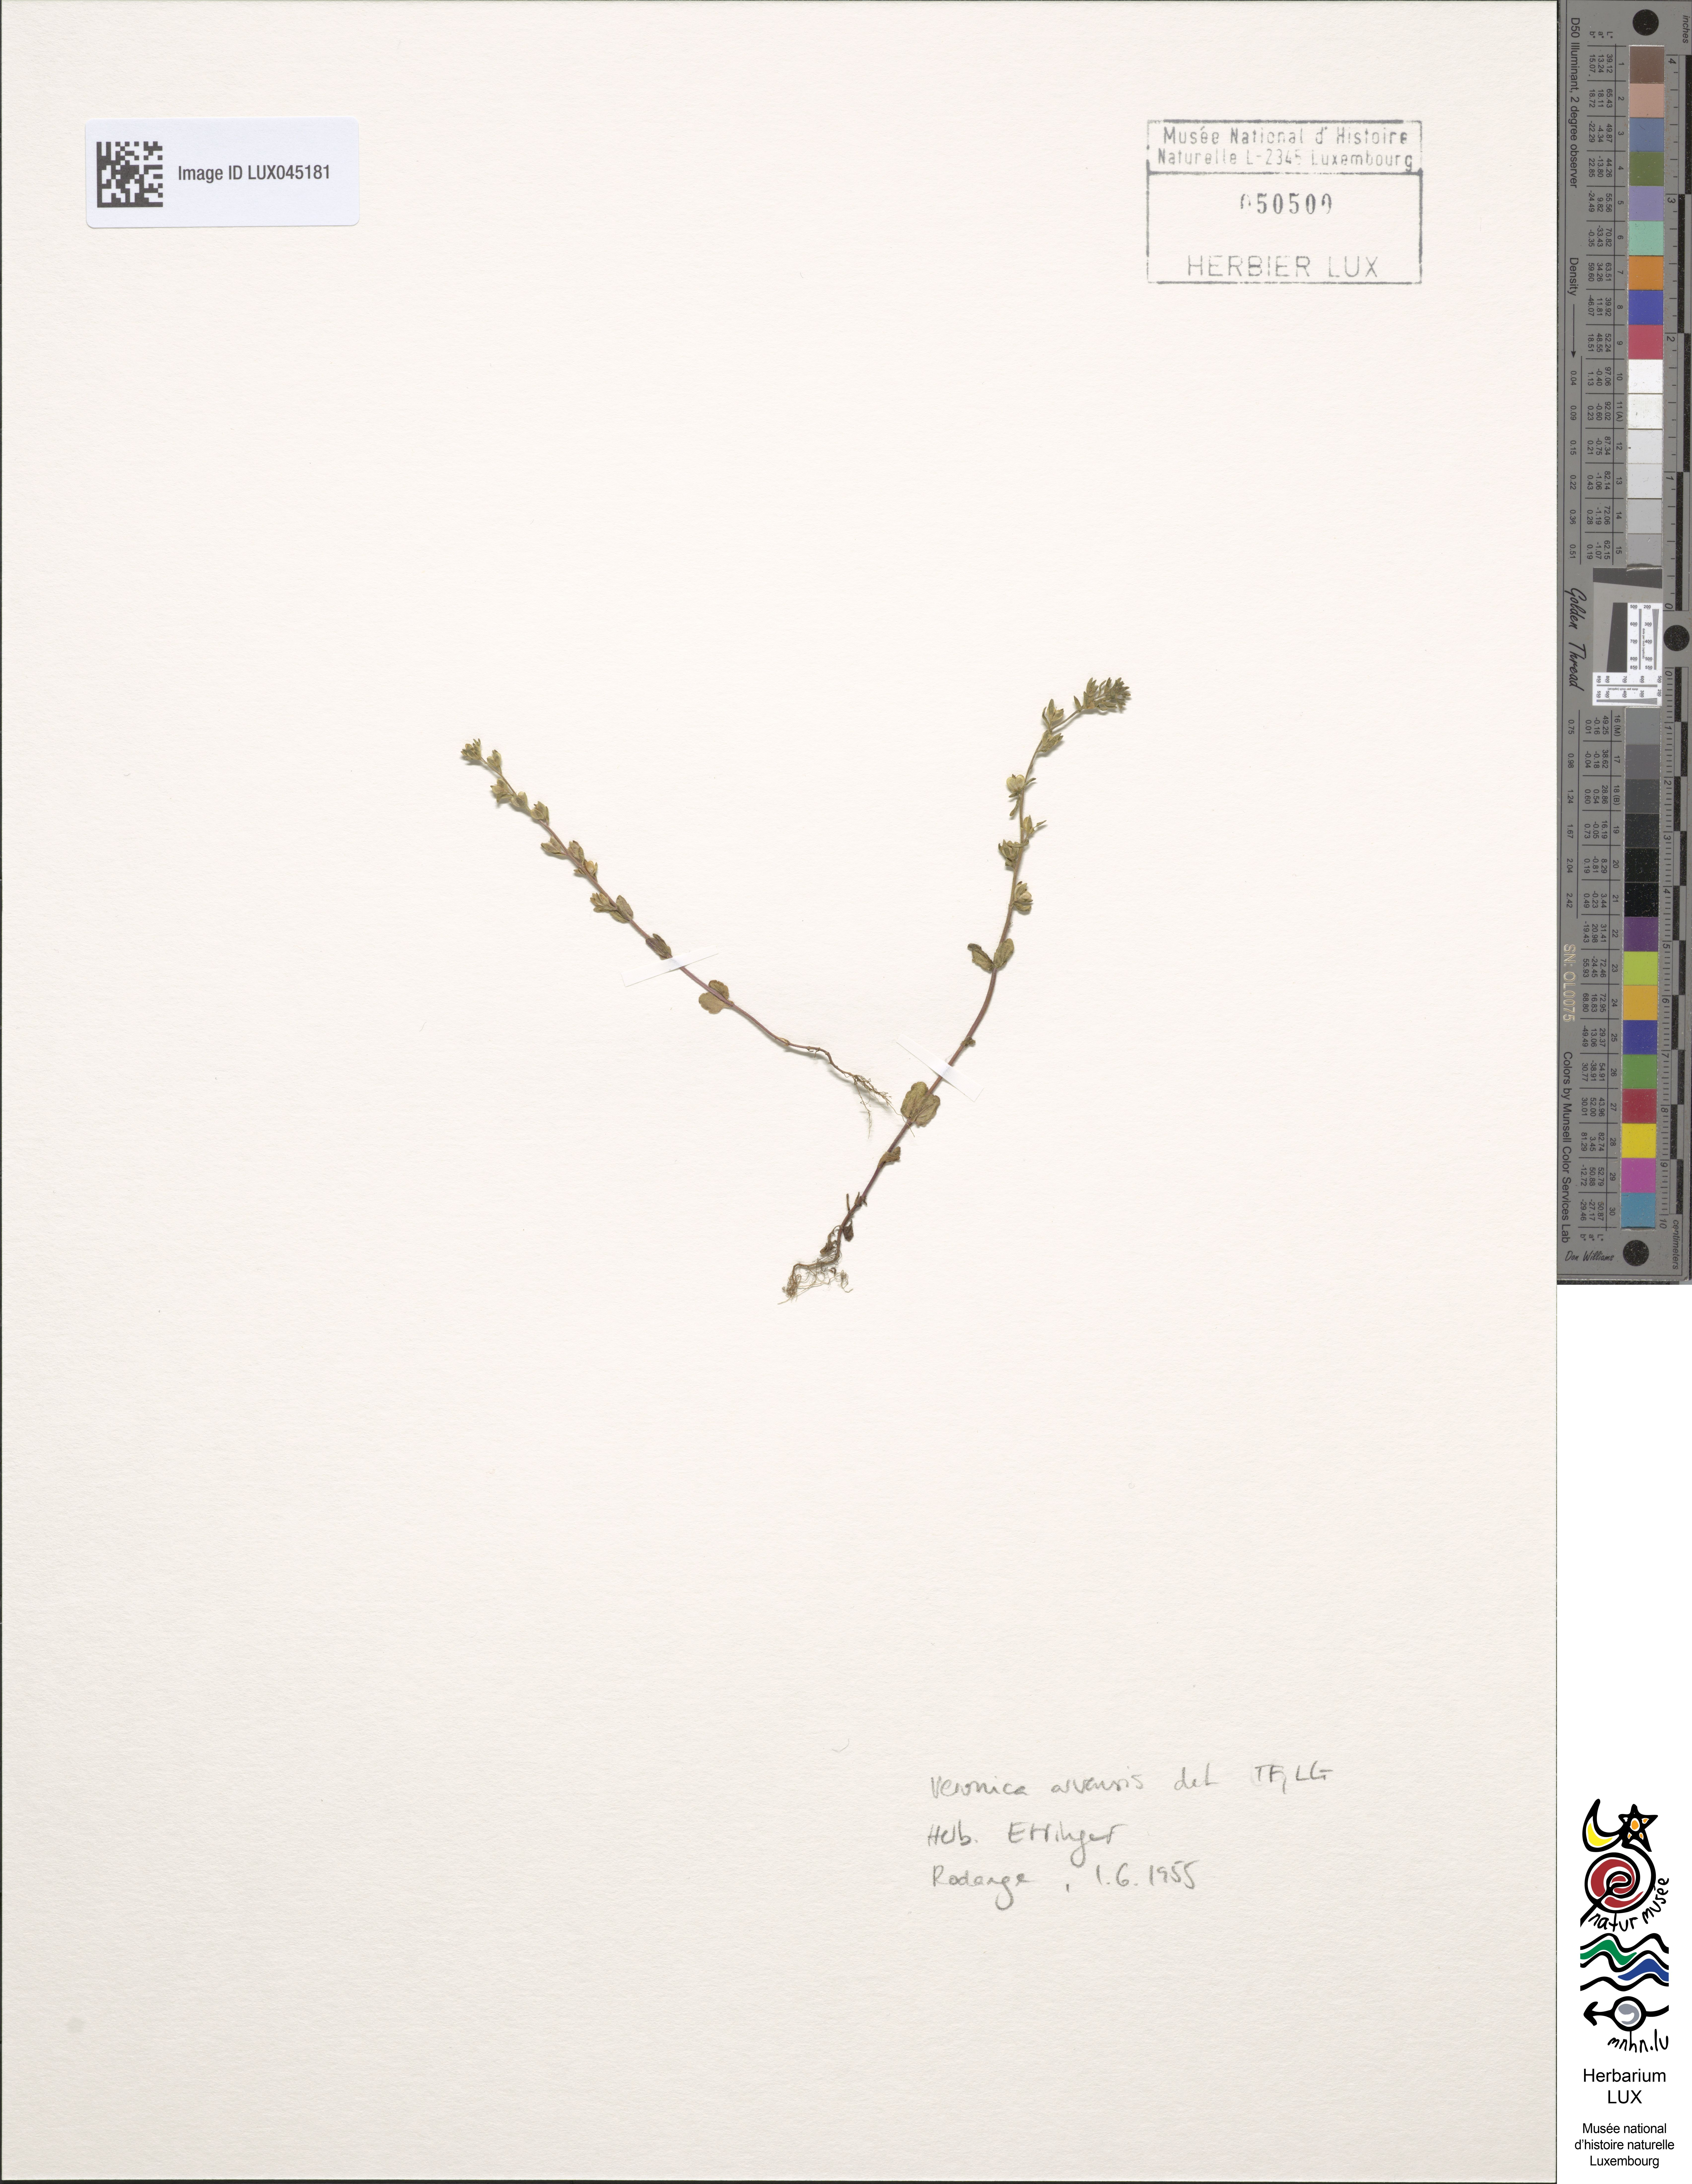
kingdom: Plantae
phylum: Tracheophyta
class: Magnoliopsida
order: Lamiales
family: Plantaginaceae
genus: Veronica
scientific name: Veronica arvensis
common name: Corn speedwell
